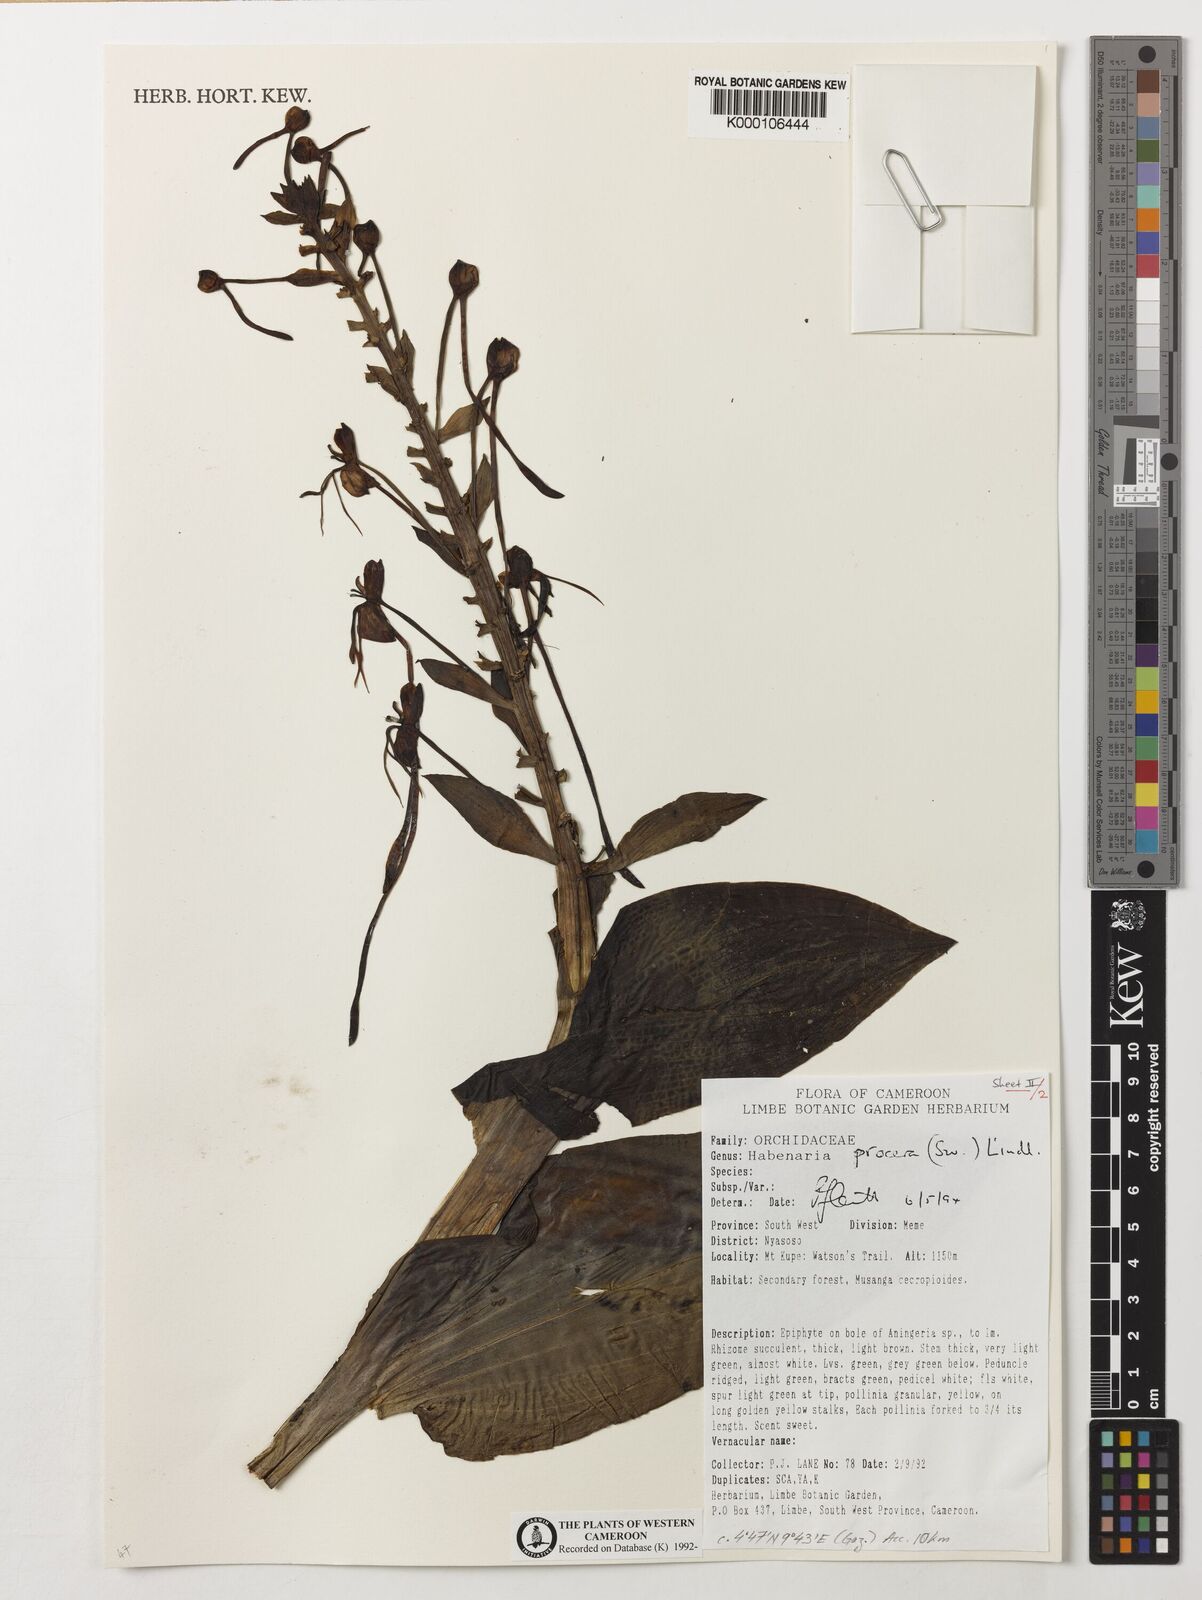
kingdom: Plantae
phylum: Tracheophyta
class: Liliopsida
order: Asparagales
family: Orchidaceae
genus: Habenaria
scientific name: Habenaria procera
